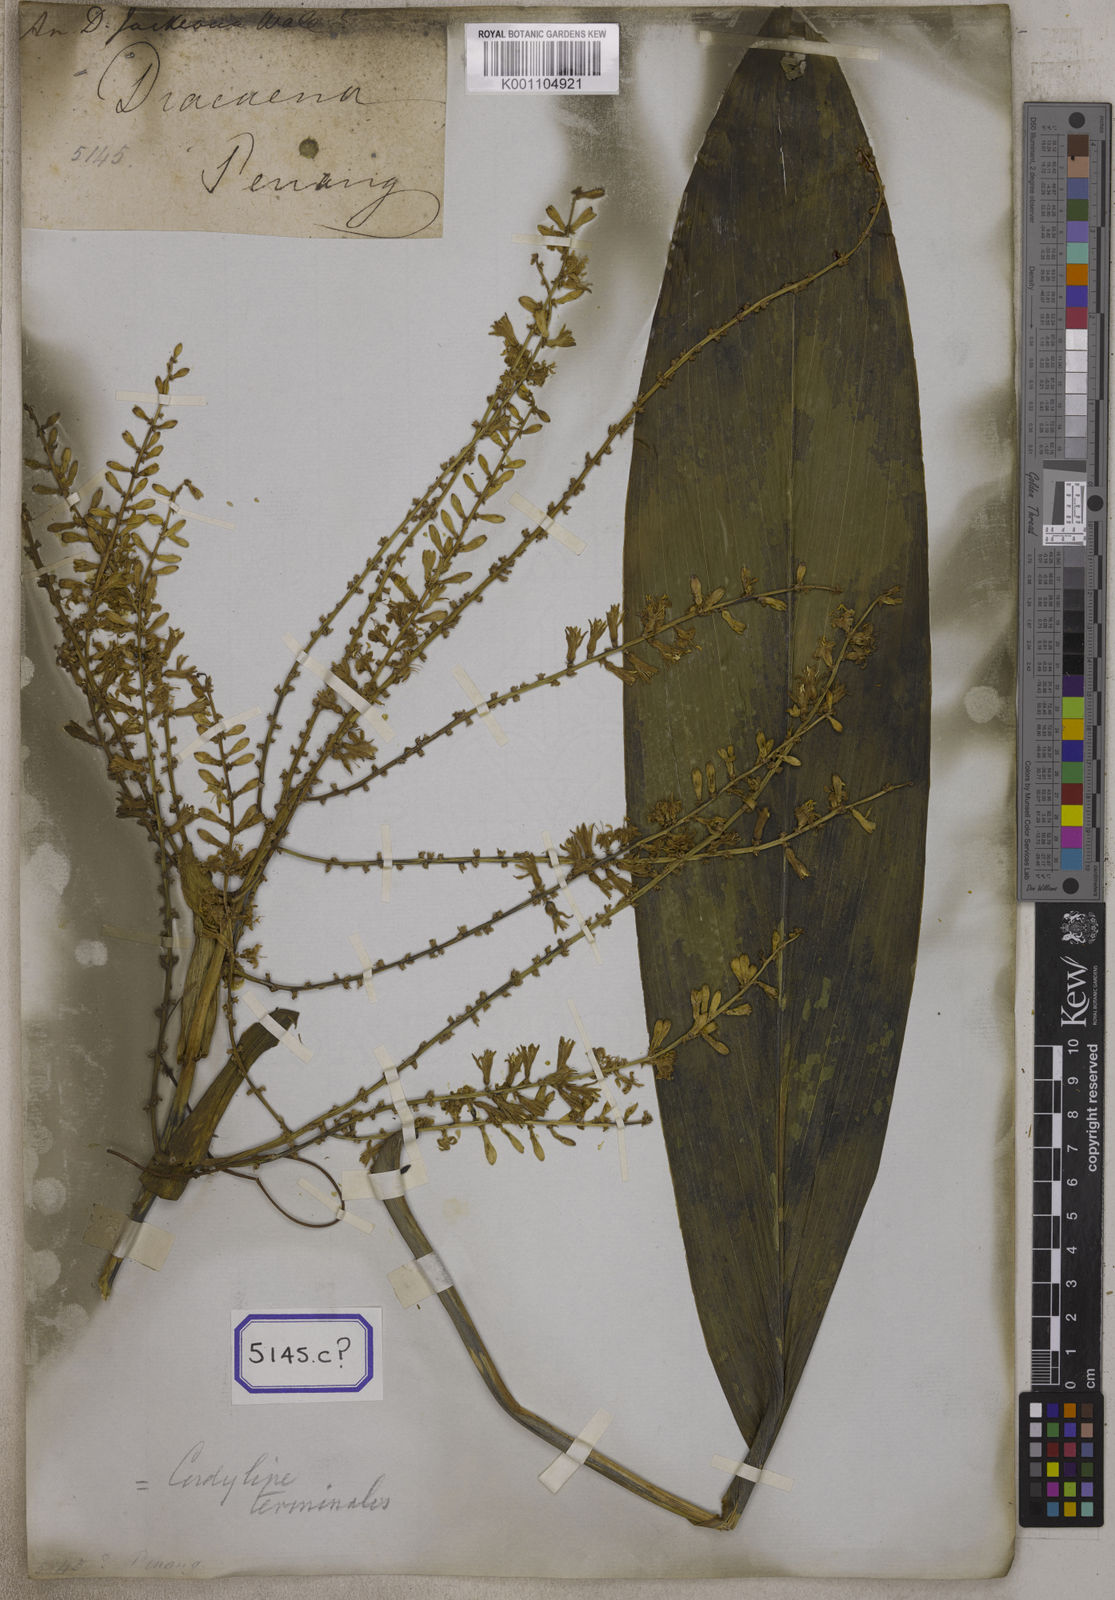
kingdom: Plantae
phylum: Tracheophyta
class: Liliopsida
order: Asparagales
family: Asparagaceae
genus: Dracaena
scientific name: Dracaena
